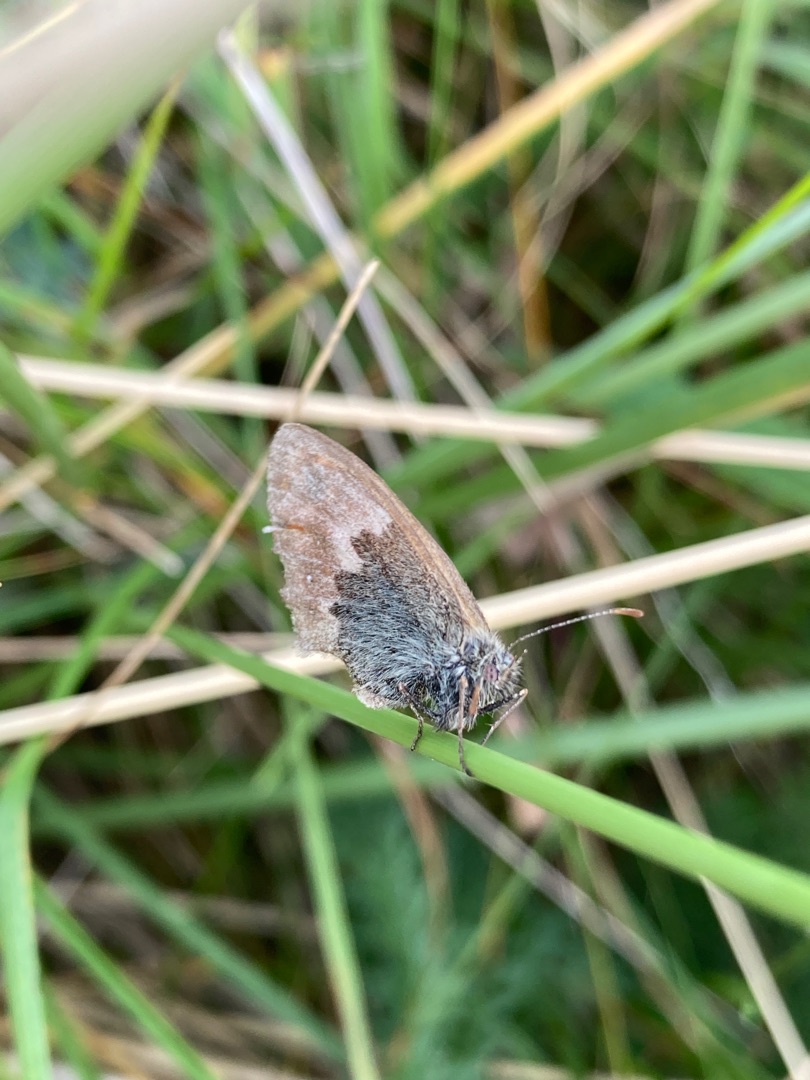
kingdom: Animalia
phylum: Arthropoda
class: Insecta
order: Lepidoptera
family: Nymphalidae
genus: Coenonympha
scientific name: Coenonympha pamphilus
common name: Okkergul randøje
